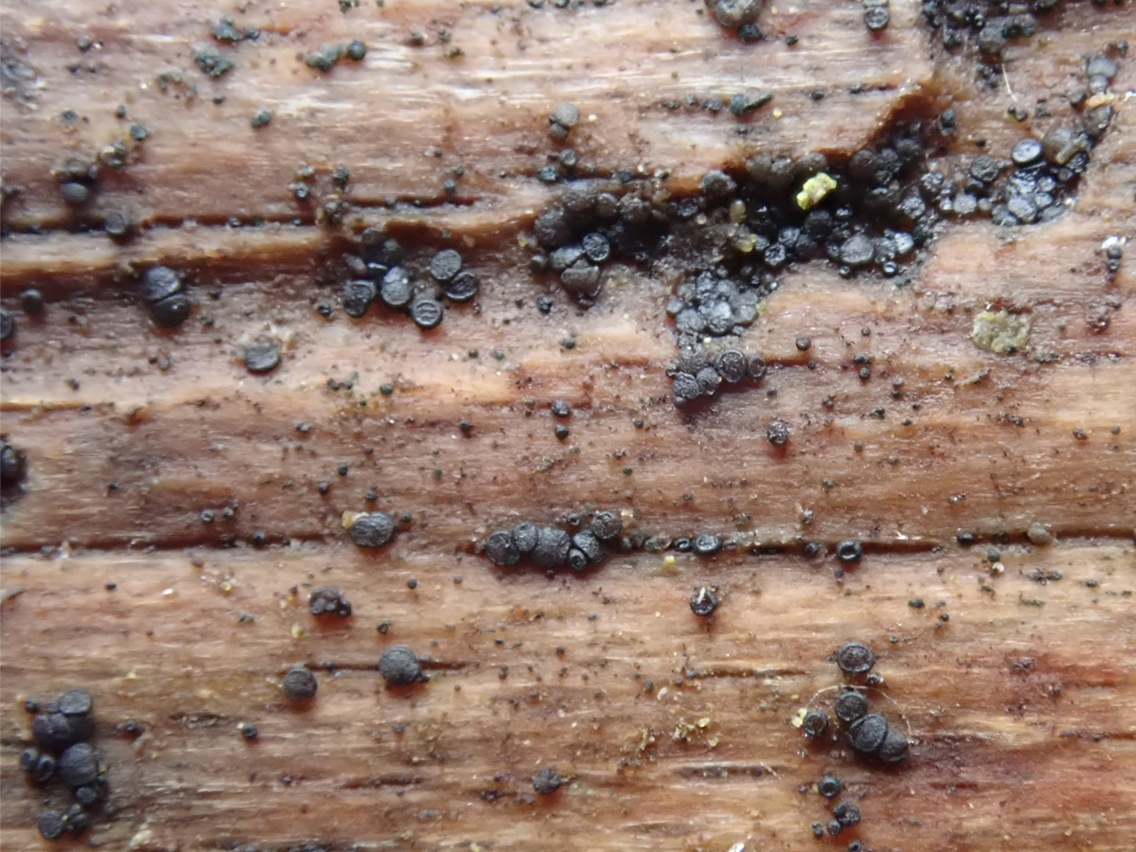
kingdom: Fungi
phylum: Ascomycota
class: Leotiomycetes
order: Helotiales
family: Helotiaceae
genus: Durella
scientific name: Durella macrospora
